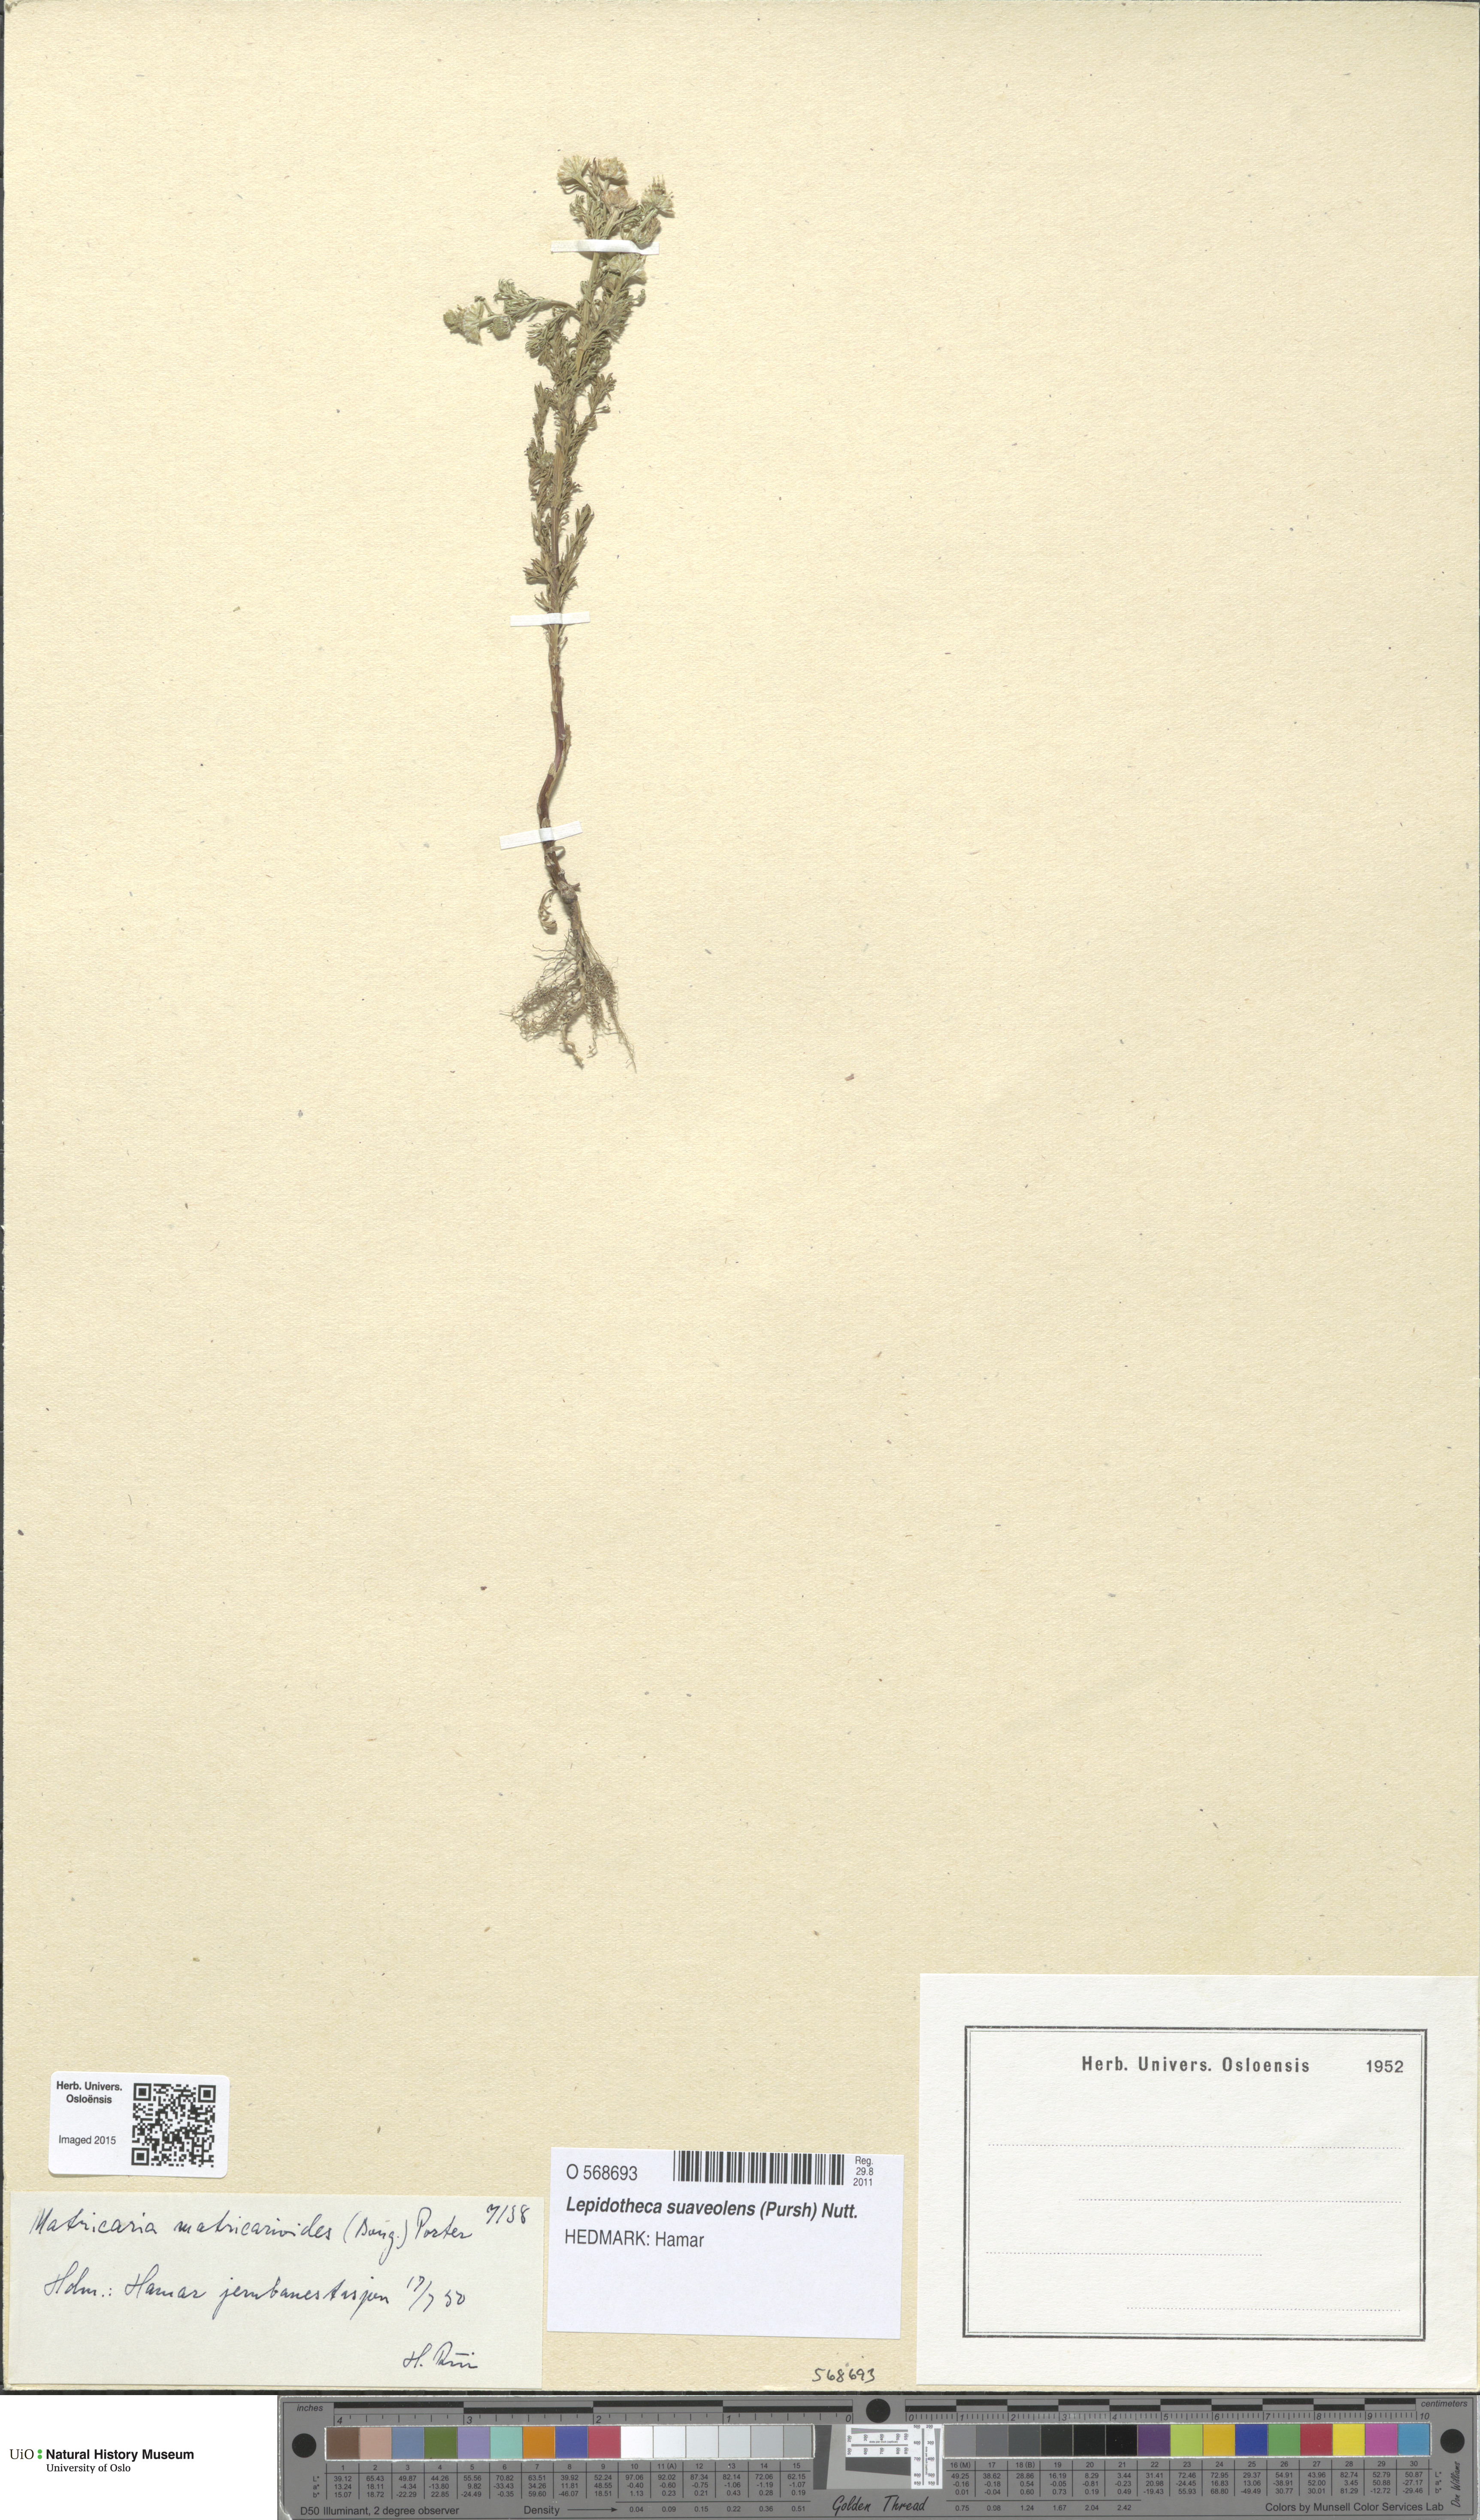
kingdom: Plantae
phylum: Tracheophyta
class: Magnoliopsida
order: Asterales
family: Asteraceae
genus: Matricaria
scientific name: Matricaria discoidea
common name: Disc mayweed
